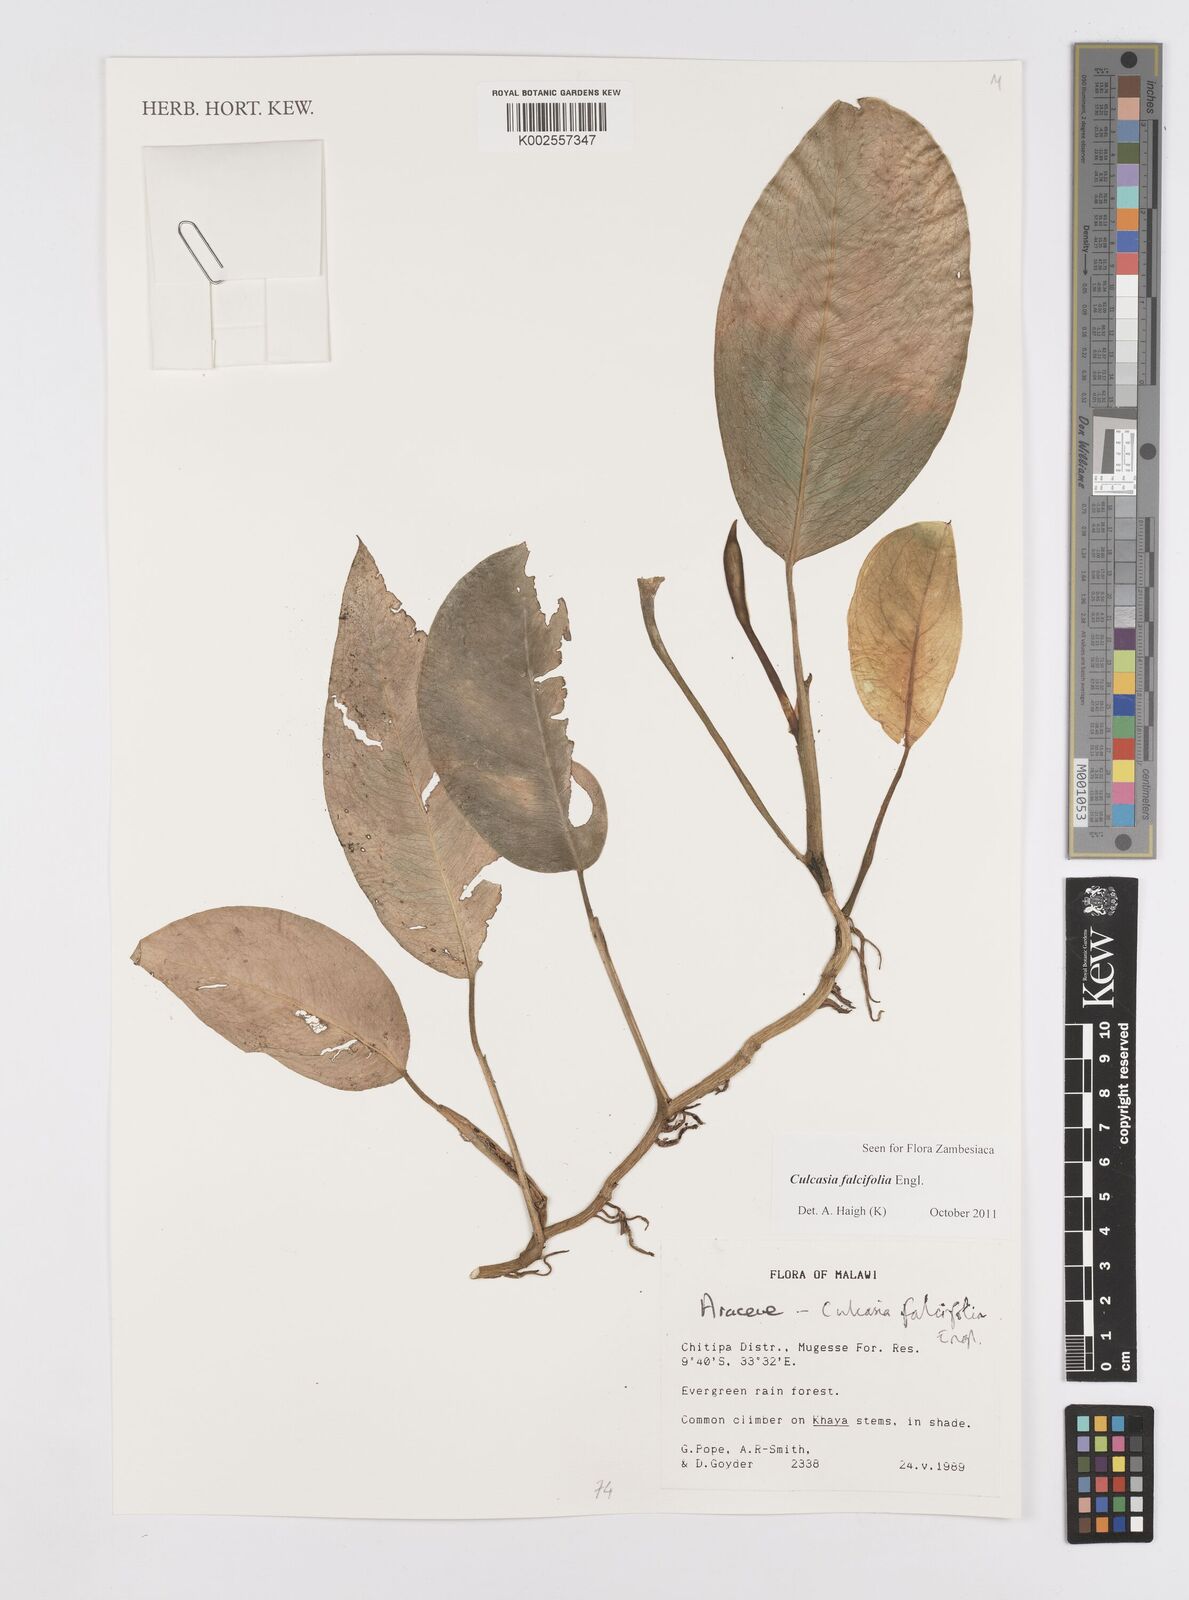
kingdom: Plantae
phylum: Tracheophyta
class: Liliopsida
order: Alismatales
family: Araceae
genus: Culcasia
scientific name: Culcasia falcifolia
